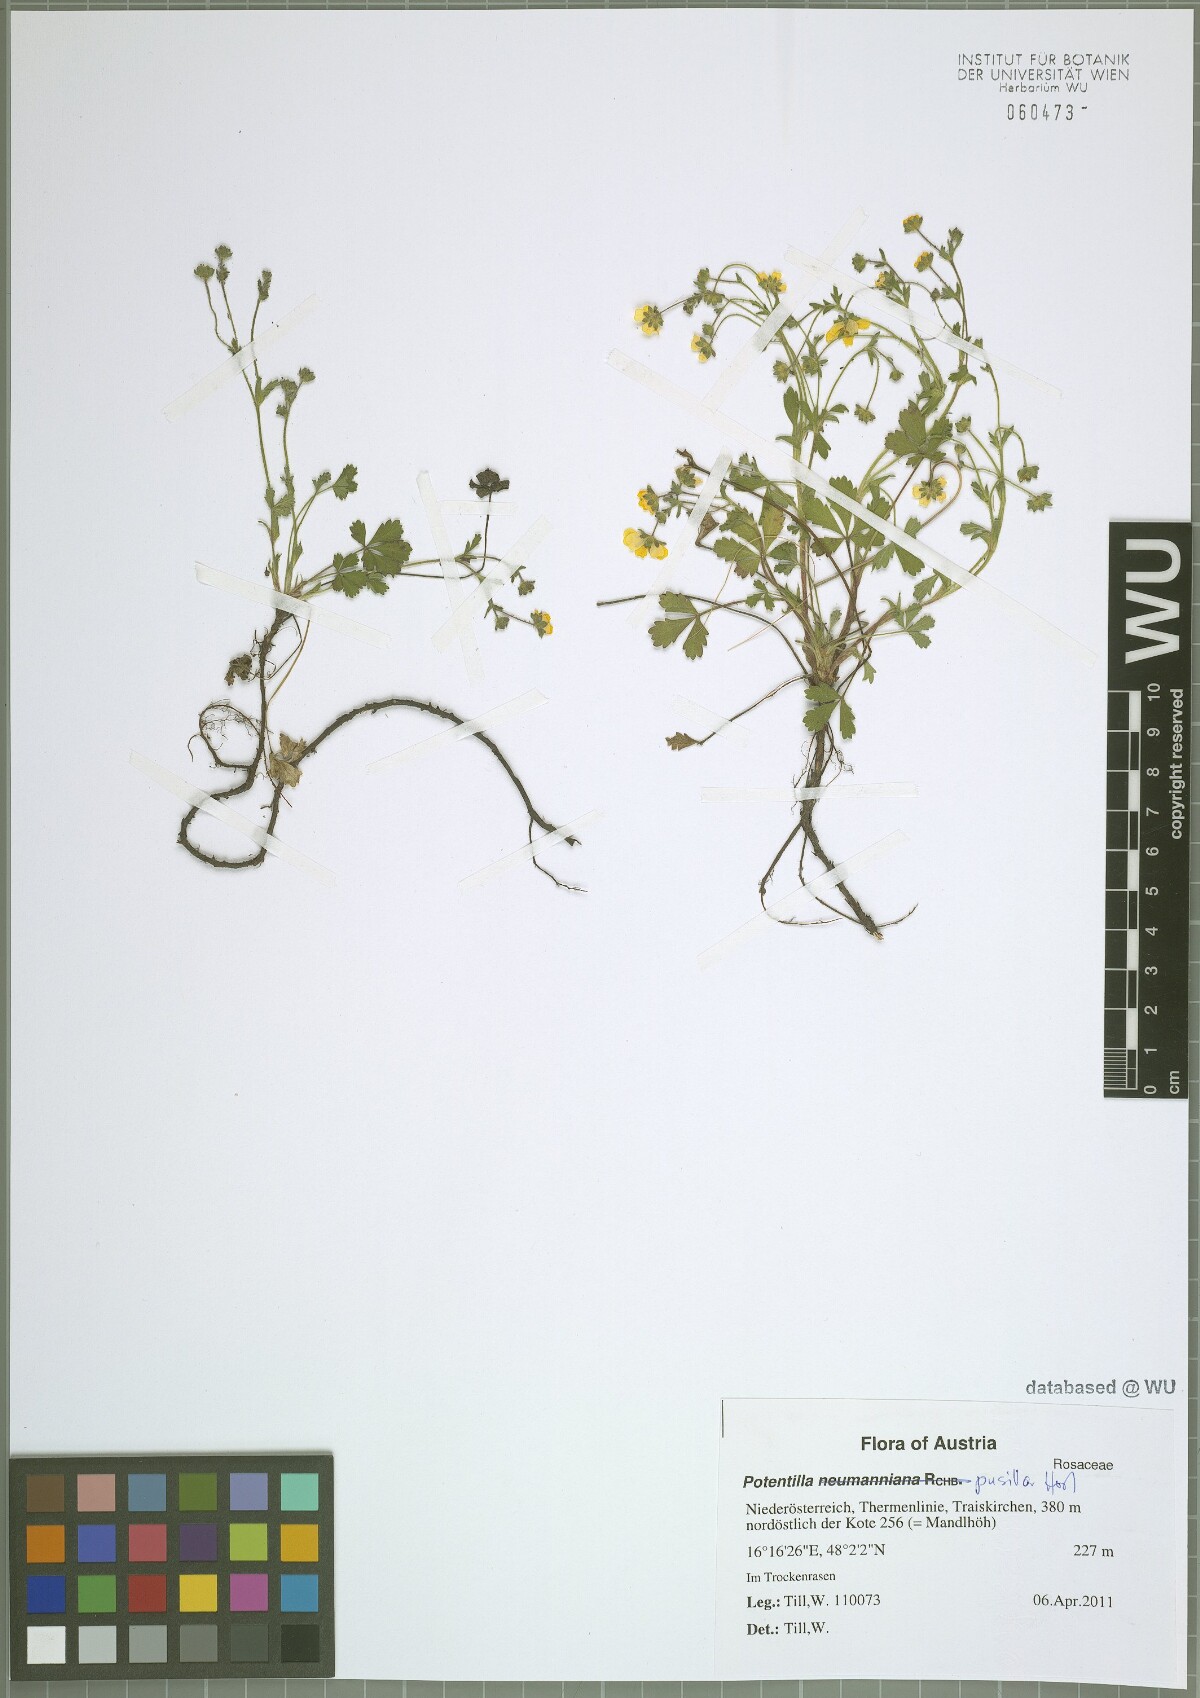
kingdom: Plantae
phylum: Tracheophyta
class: Magnoliopsida
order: Rosales
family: Rosaceae
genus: Potentilla
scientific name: Potentilla pusilla
